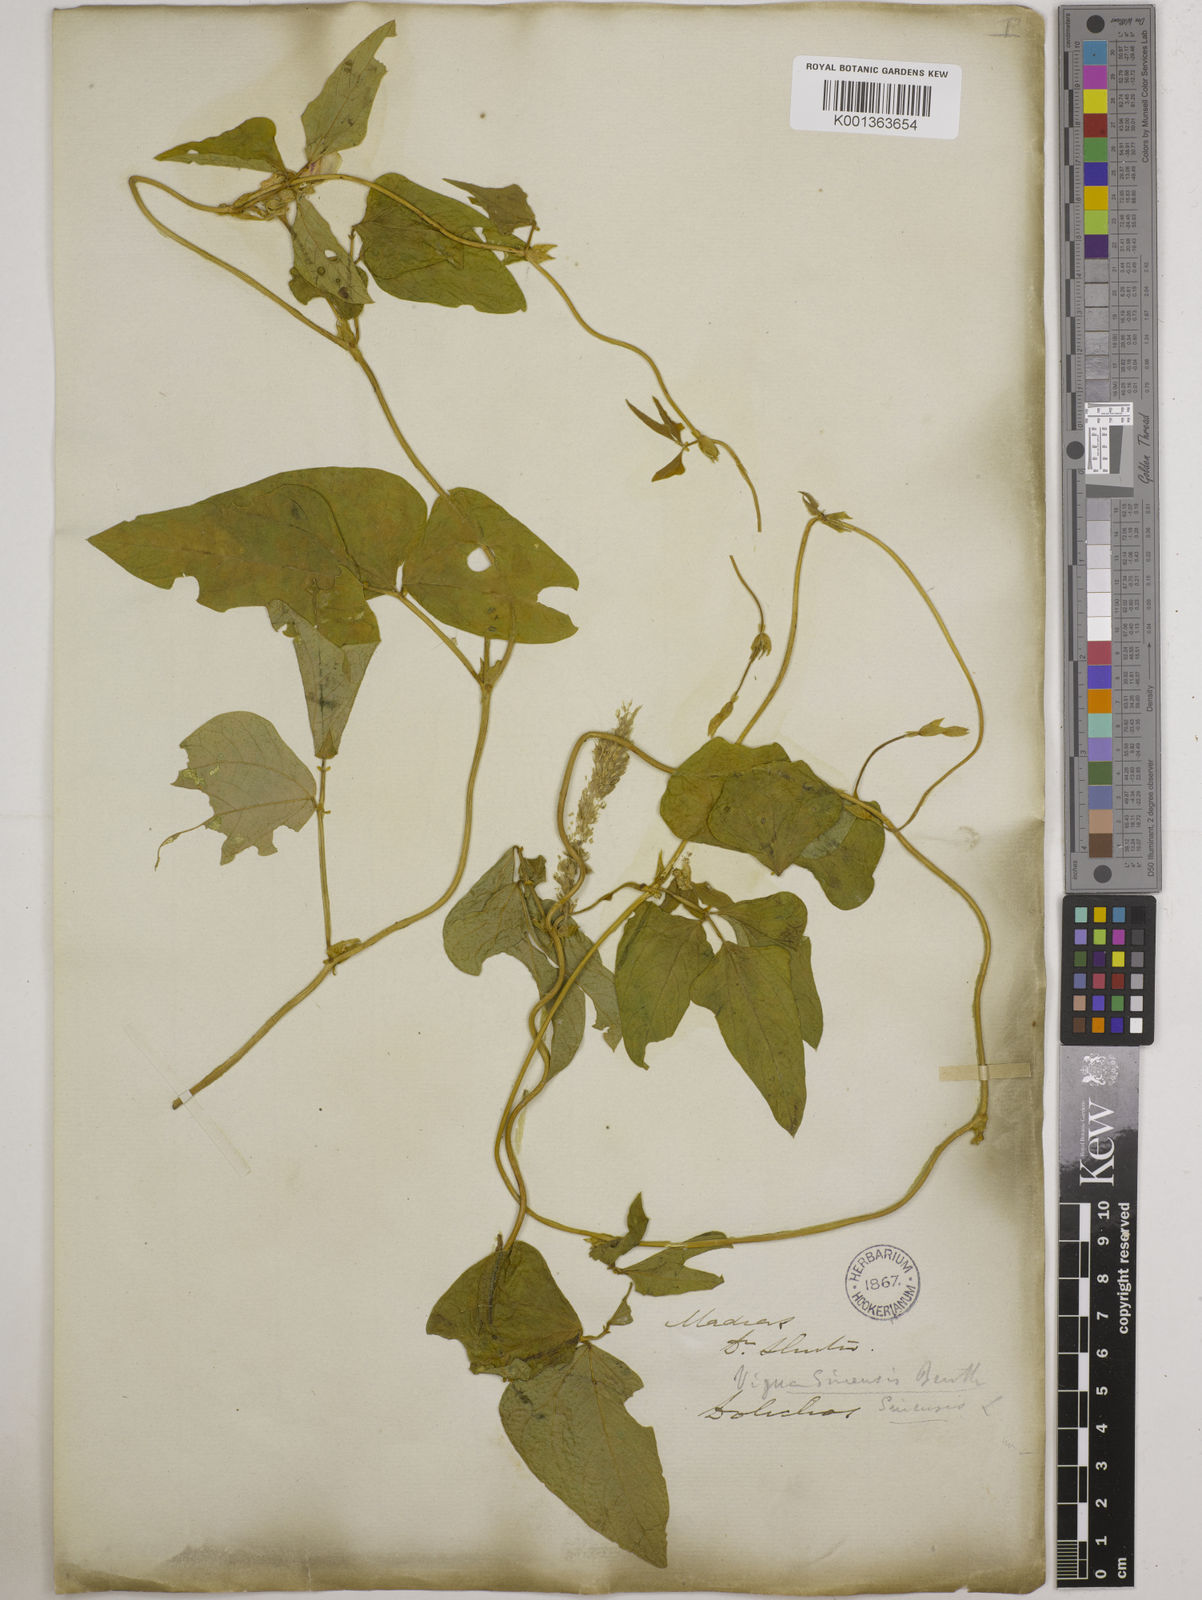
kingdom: Plantae
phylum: Tracheophyta
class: Magnoliopsida
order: Fabales
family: Fabaceae
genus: Vigna
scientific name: Vigna unguiculata
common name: Cowpea
